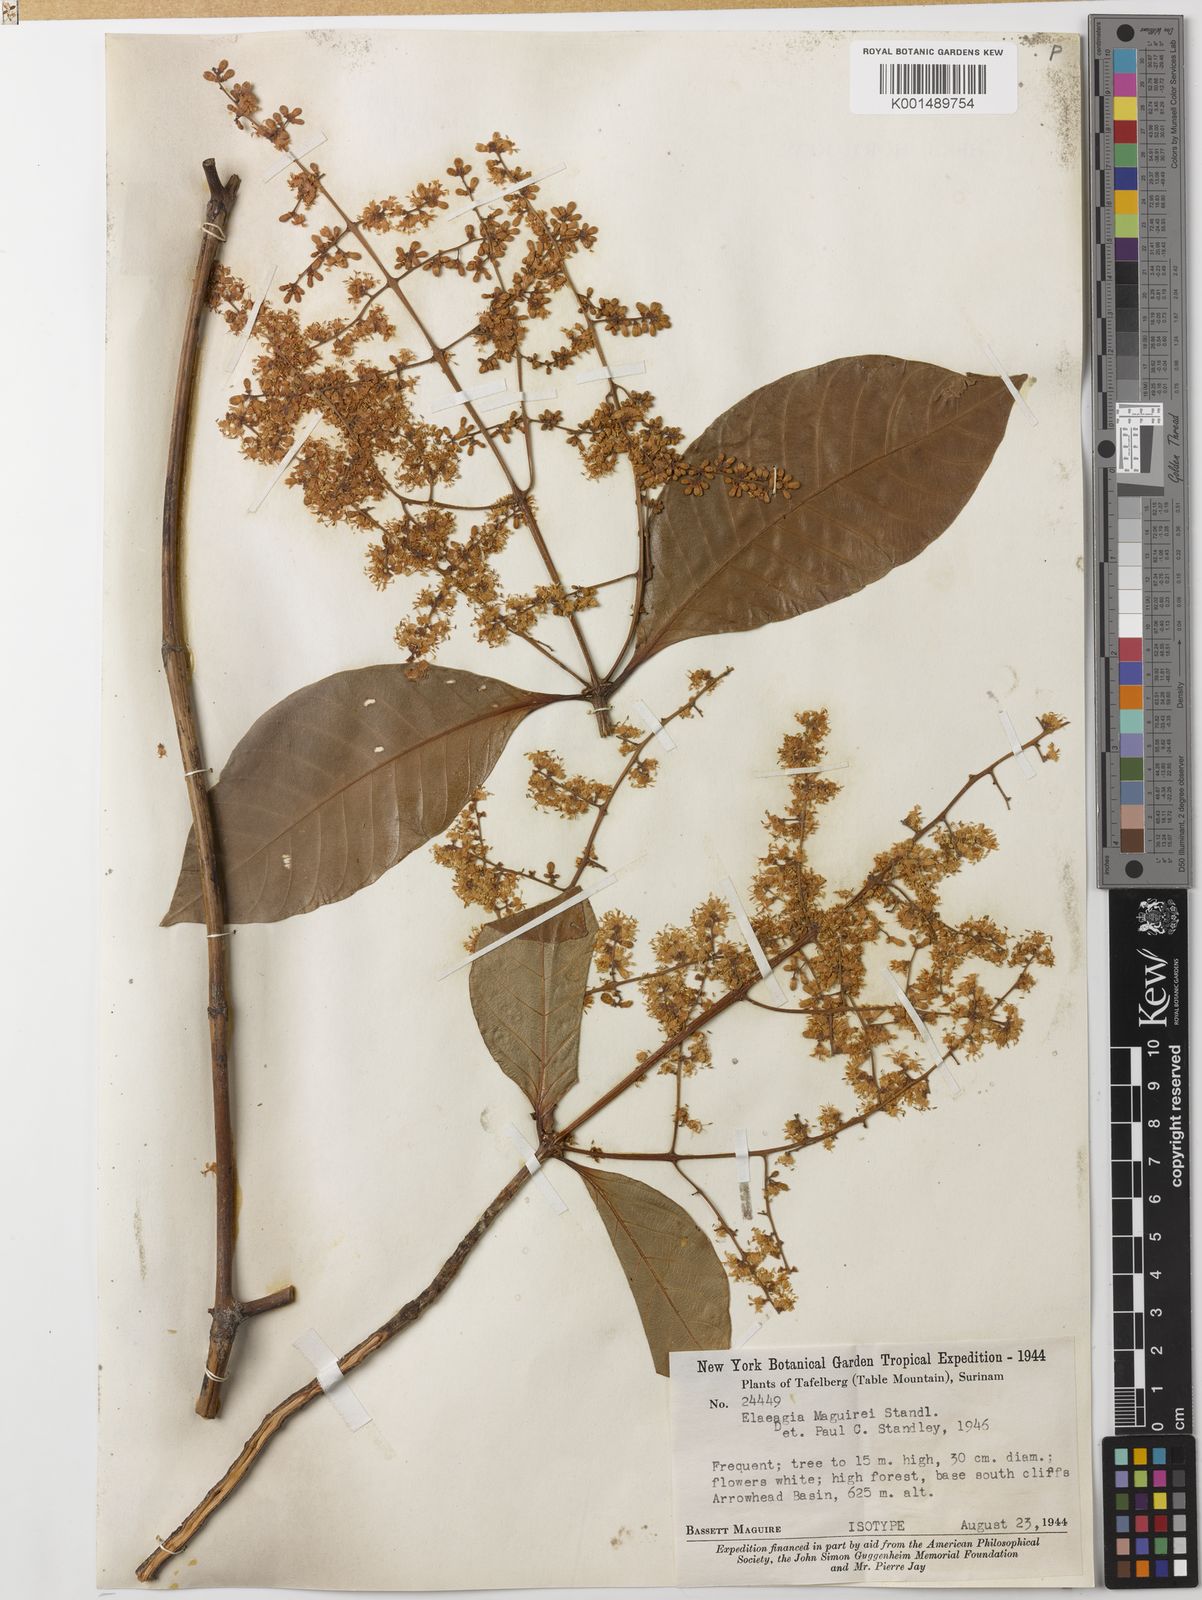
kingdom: Plantae
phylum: Tracheophyta
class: Magnoliopsida
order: Gentianales
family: Rubiaceae
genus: Elaeagia
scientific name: Elaeagia maguirei
